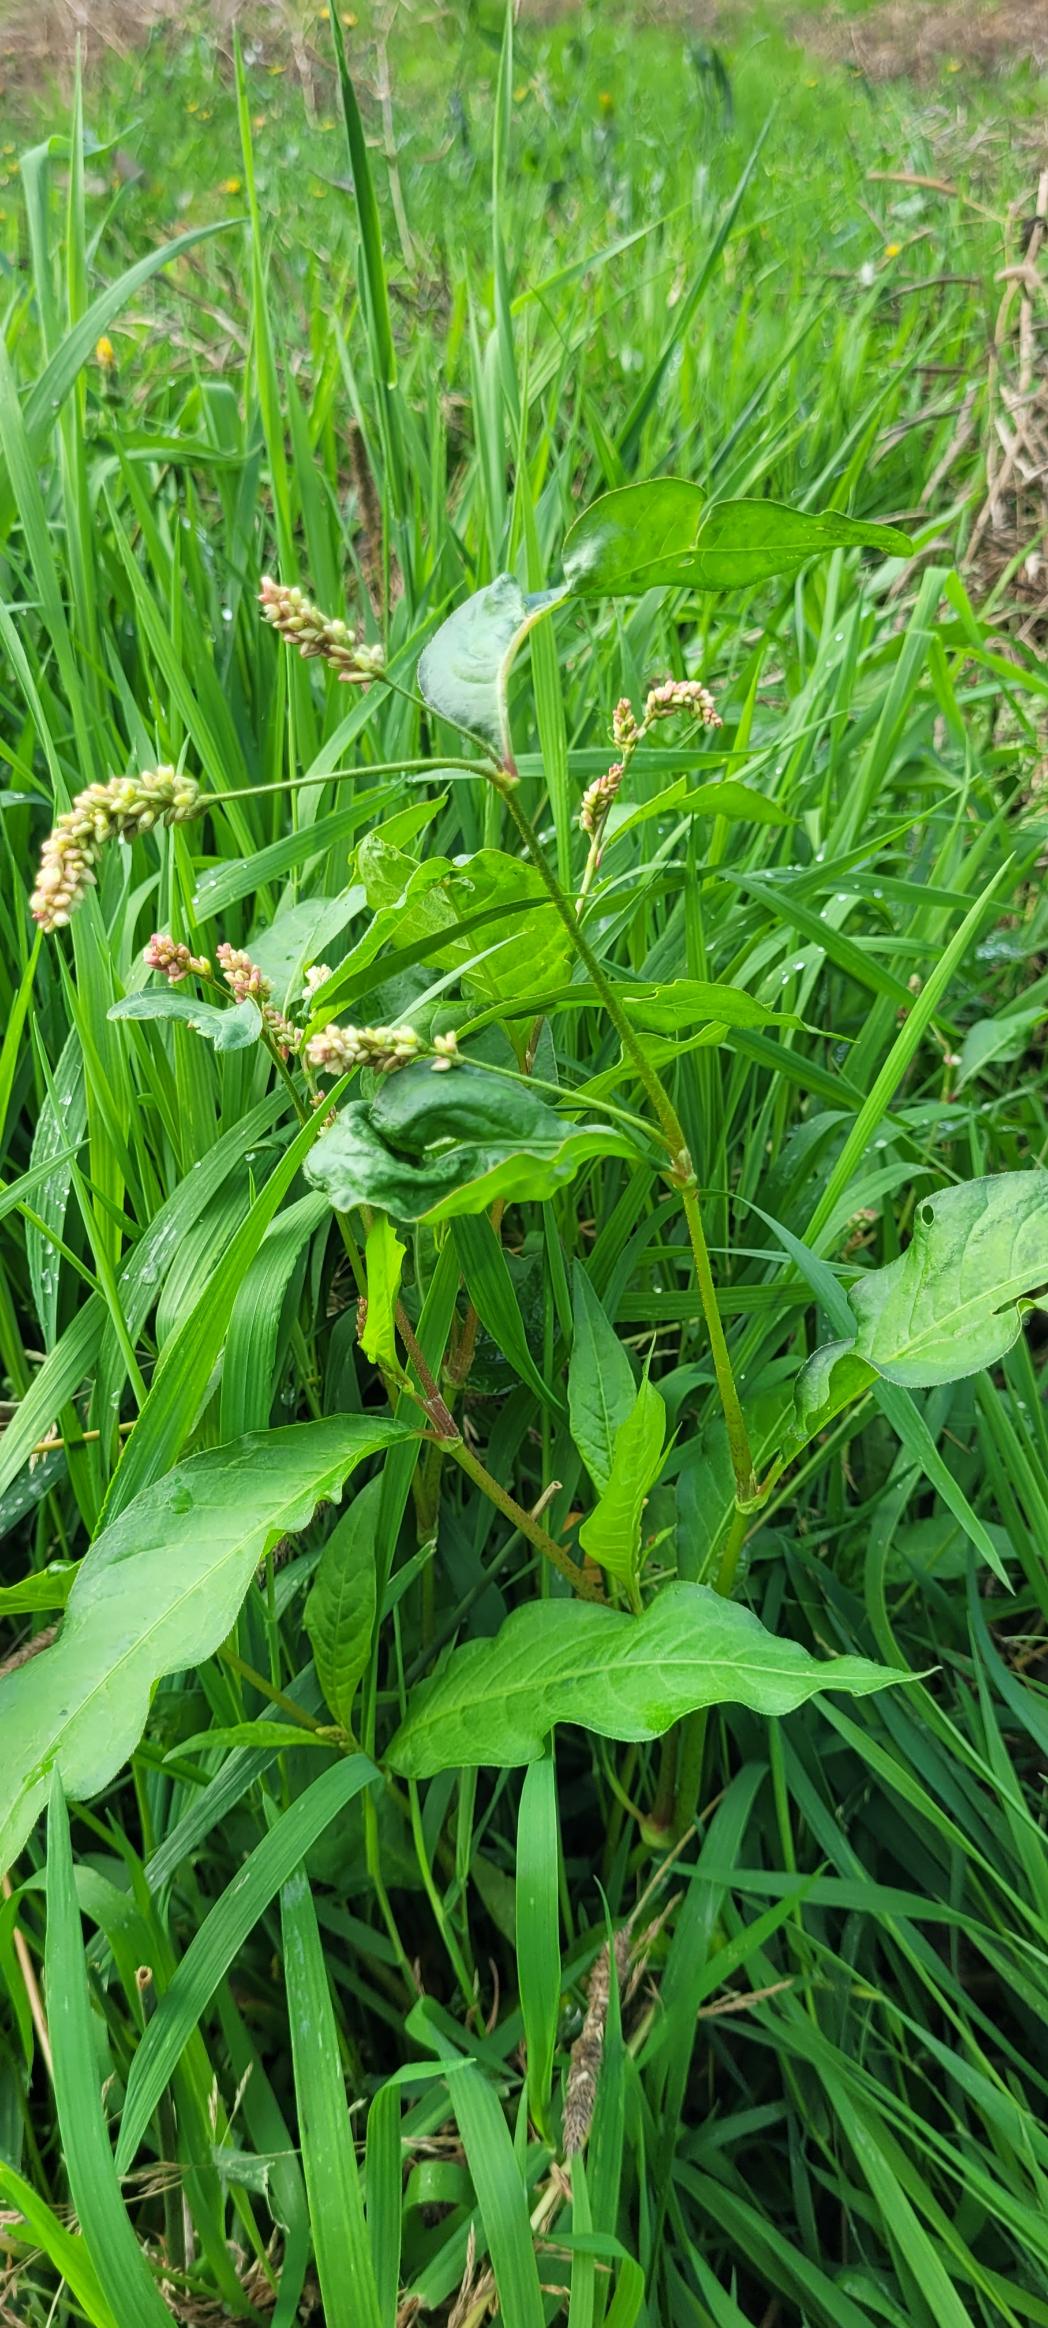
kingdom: Plantae
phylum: Tracheophyta
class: Magnoliopsida
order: Caryophyllales
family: Polygonaceae
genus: Persicaria
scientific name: Persicaria lapathifolia
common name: Knudet pileurt (underart)
